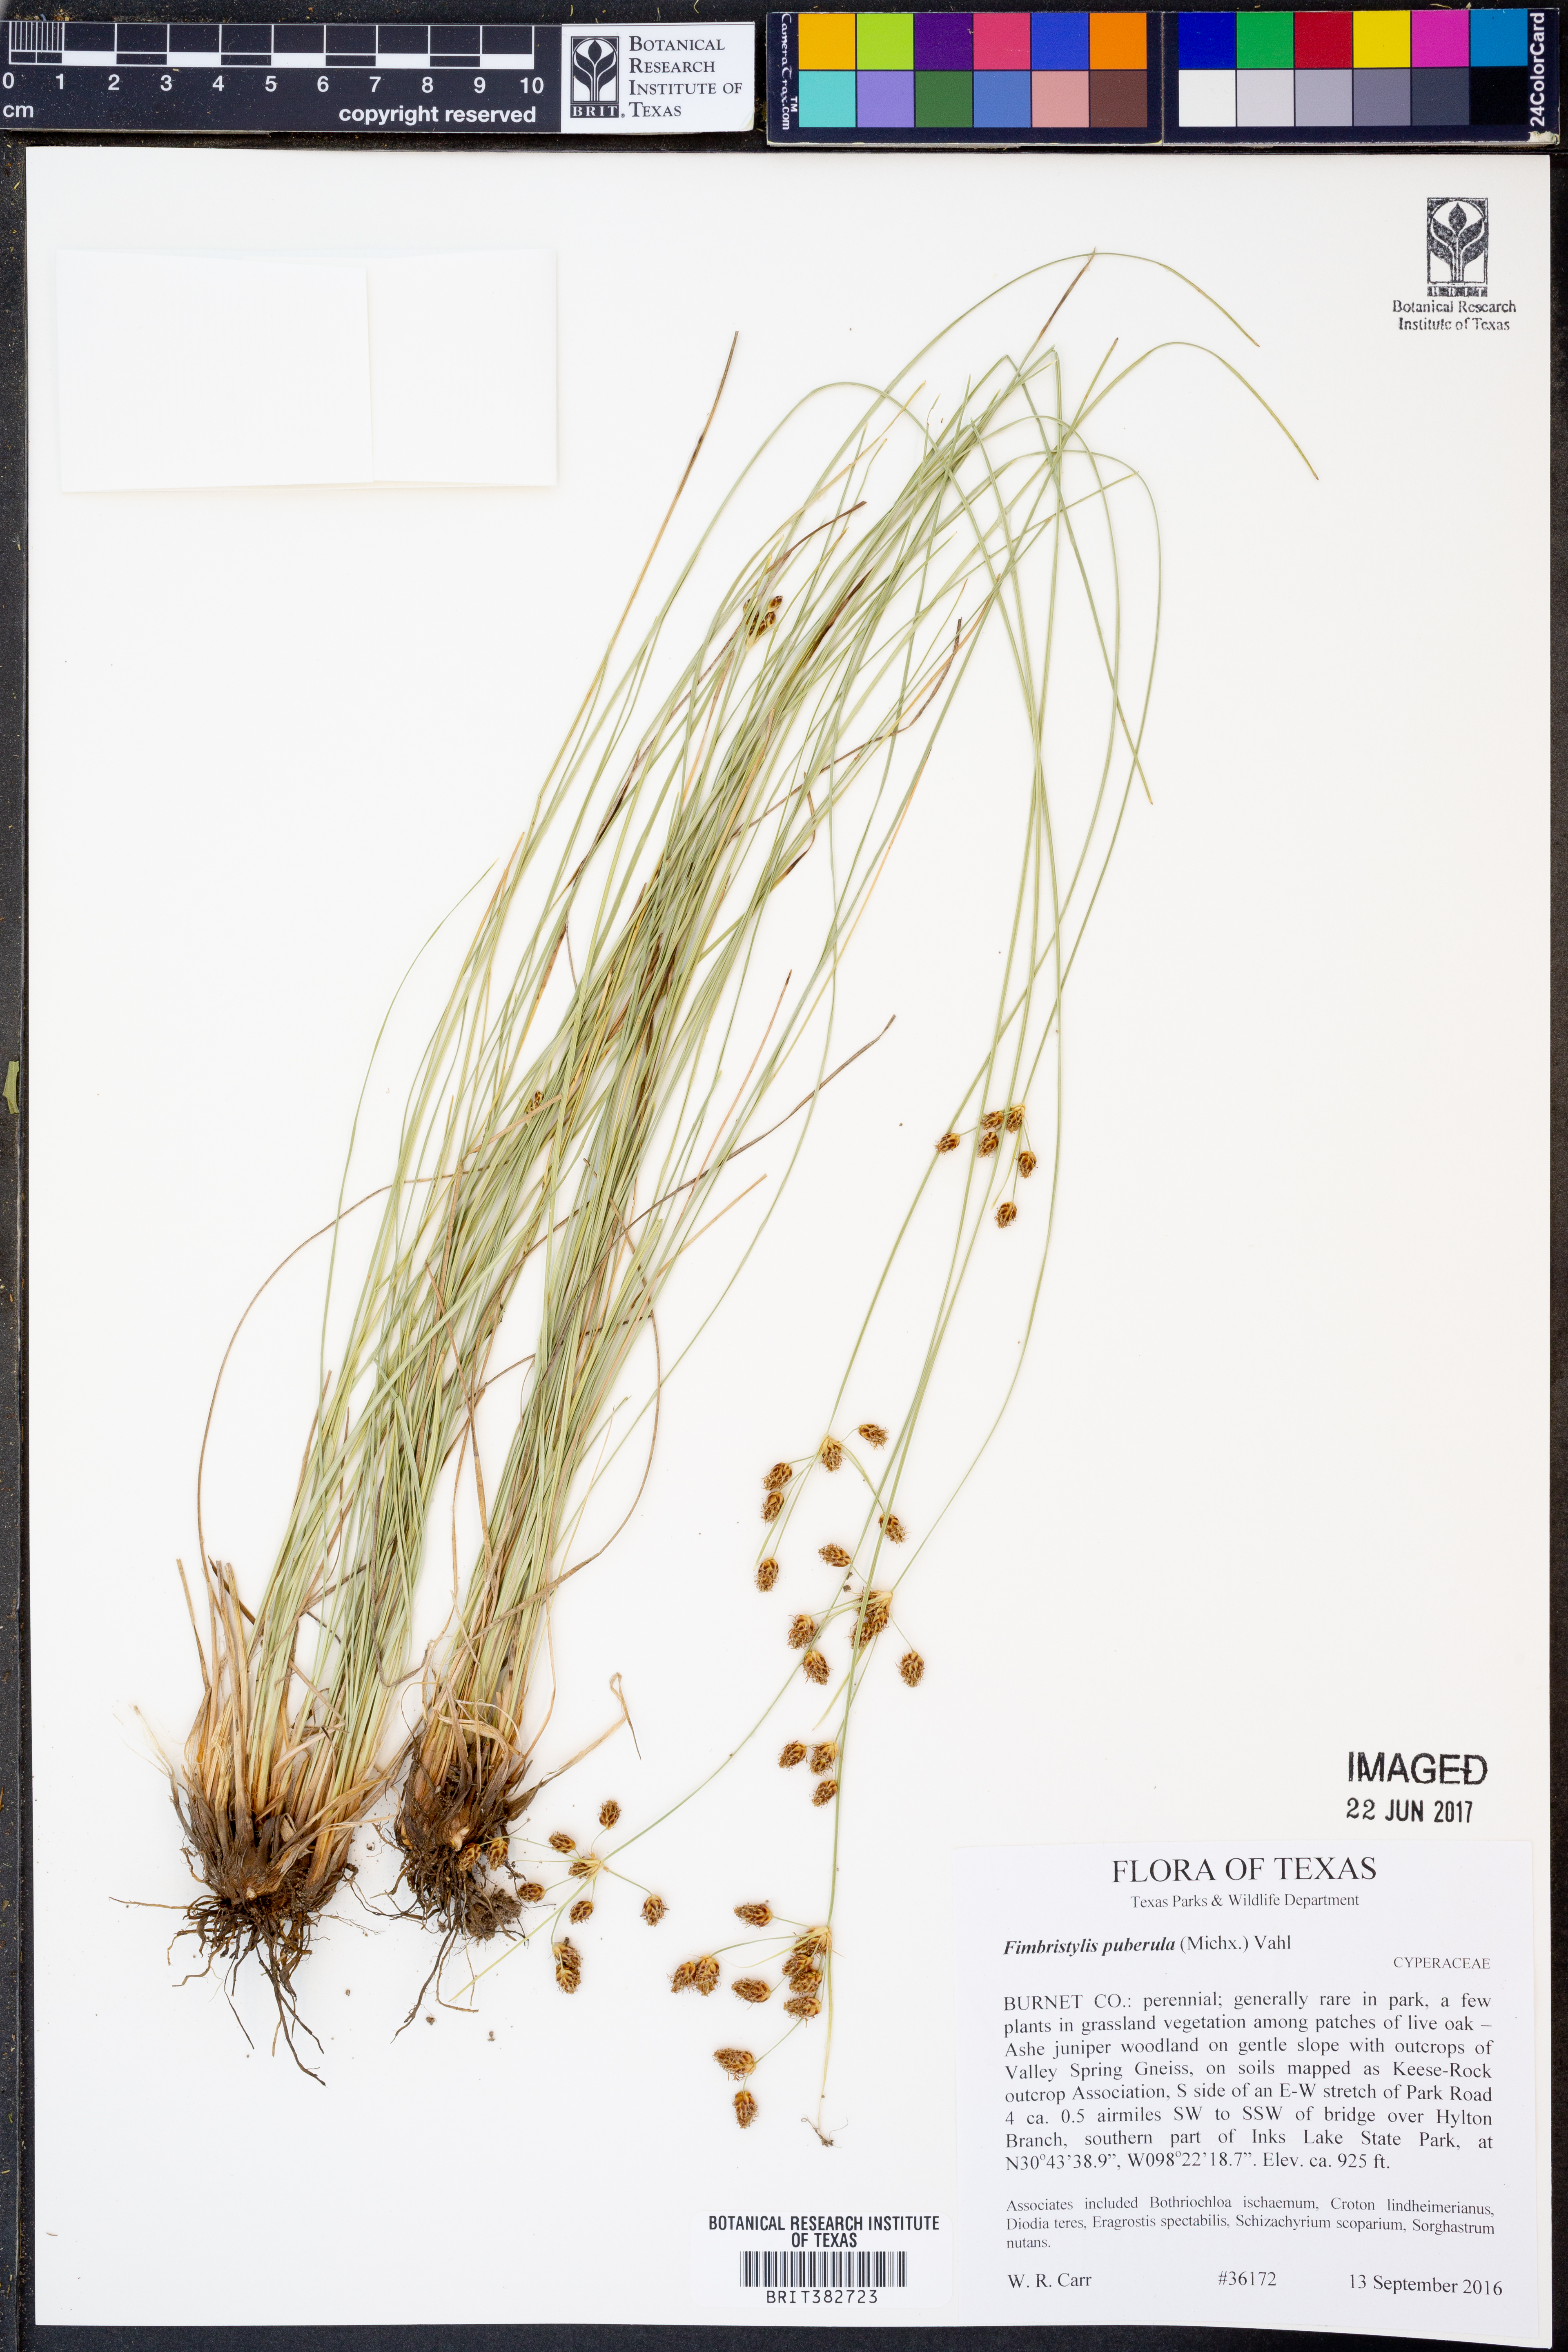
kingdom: Plantae
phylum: Tracheophyta
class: Liliopsida
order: Poales
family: Cyperaceae
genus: Fimbristylis
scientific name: Fimbristylis puberula
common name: Hairy fimbristylis
